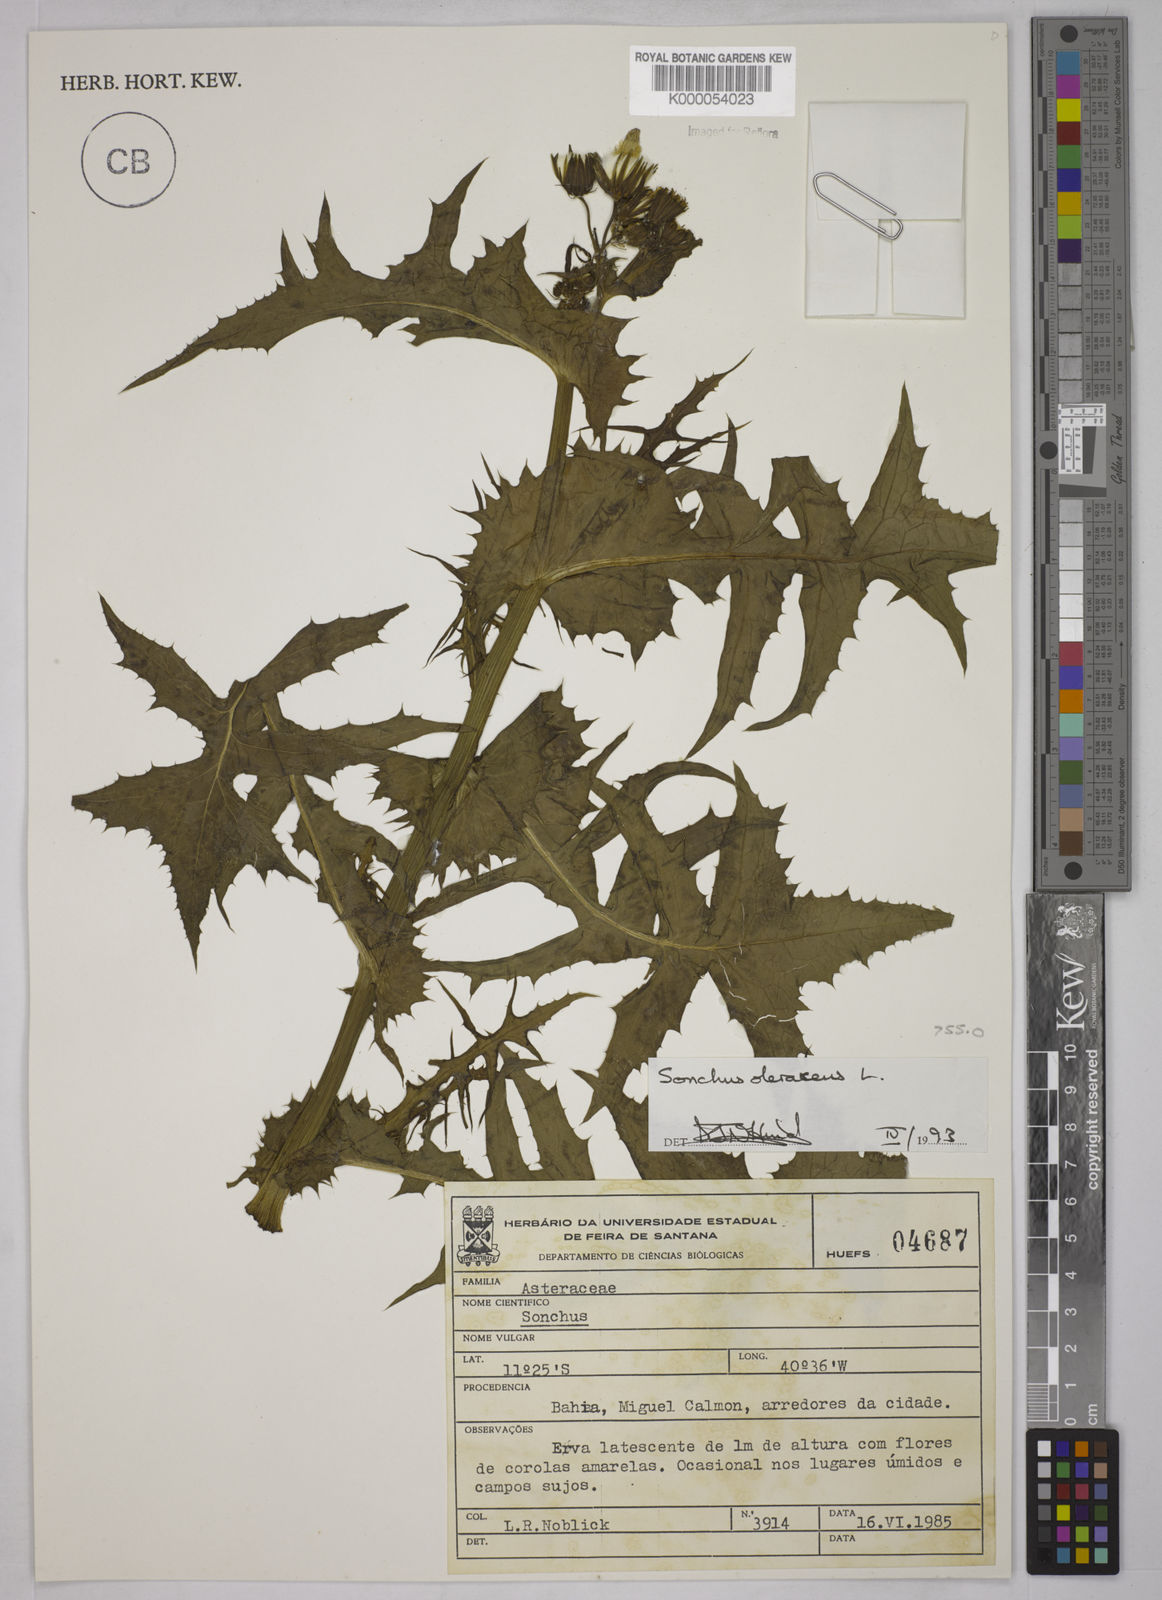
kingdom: Plantae
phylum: Tracheophyta
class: Magnoliopsida
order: Asterales
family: Asteraceae
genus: Sonchus
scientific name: Sonchus oleraceus
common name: Common sowthistle
